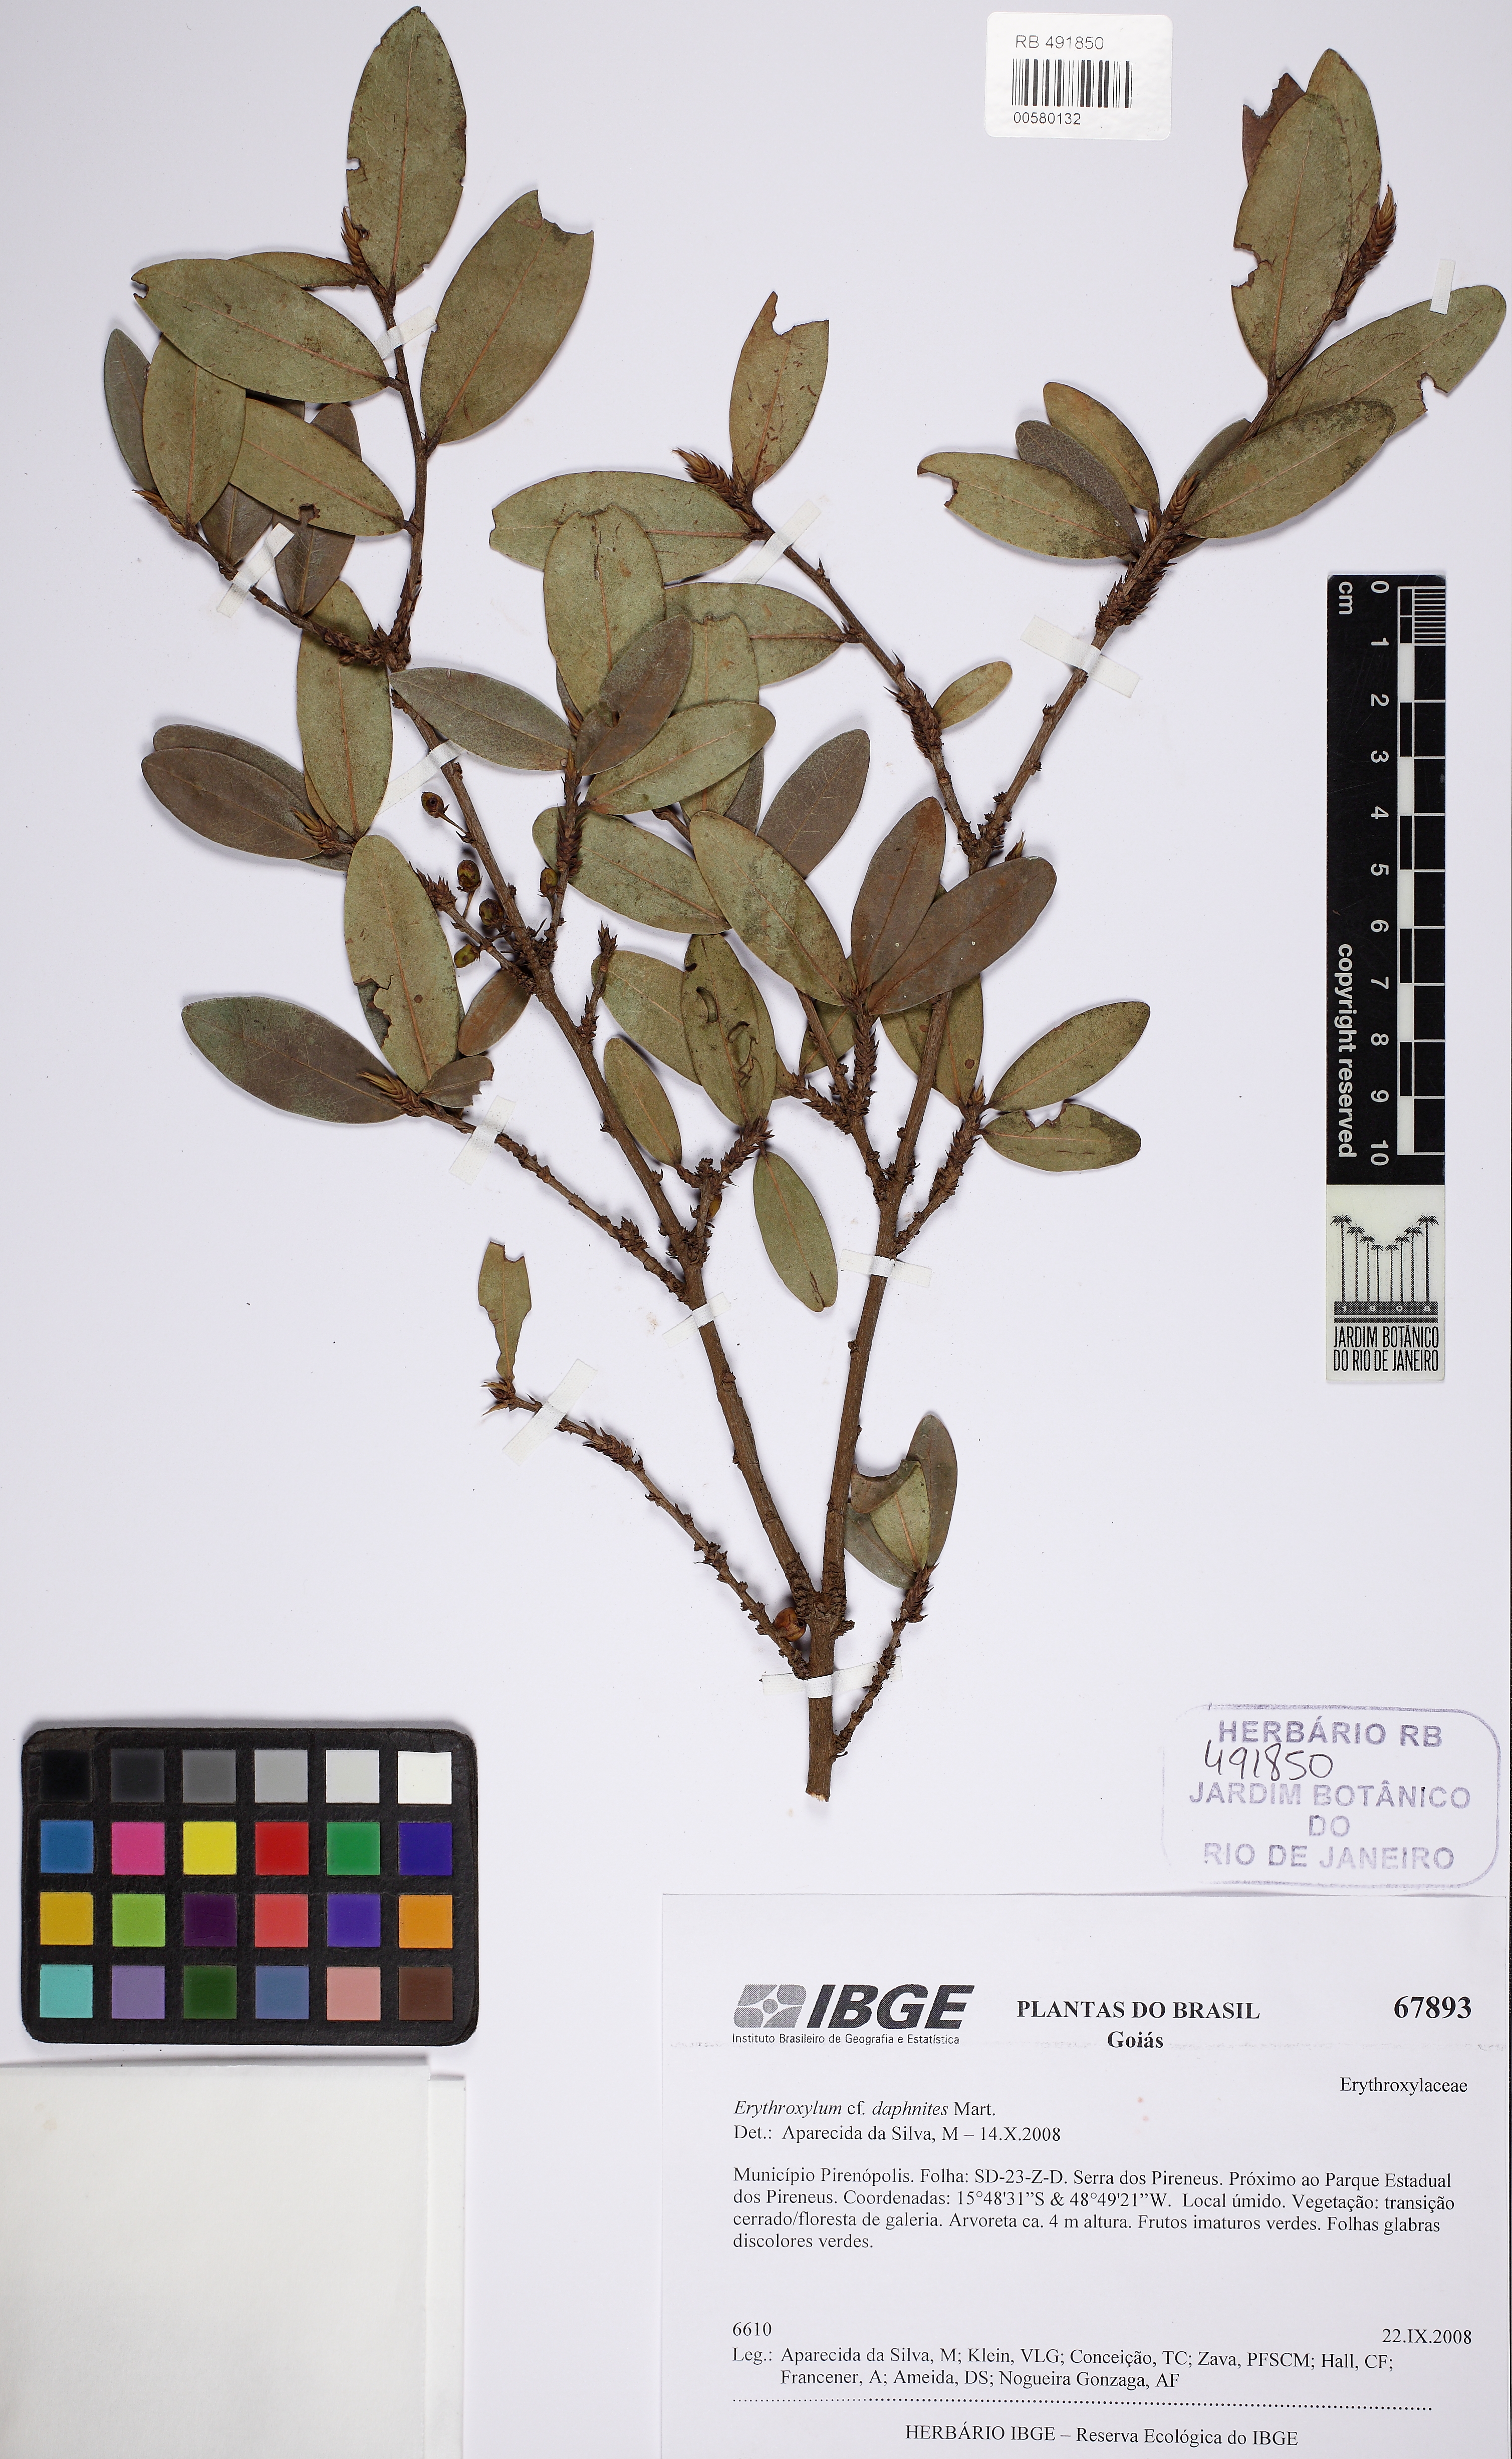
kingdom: Plantae
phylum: Tracheophyta
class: Magnoliopsida
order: Malpighiales
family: Erythroxylaceae
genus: Erythroxylum
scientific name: Erythroxylum daphnites
